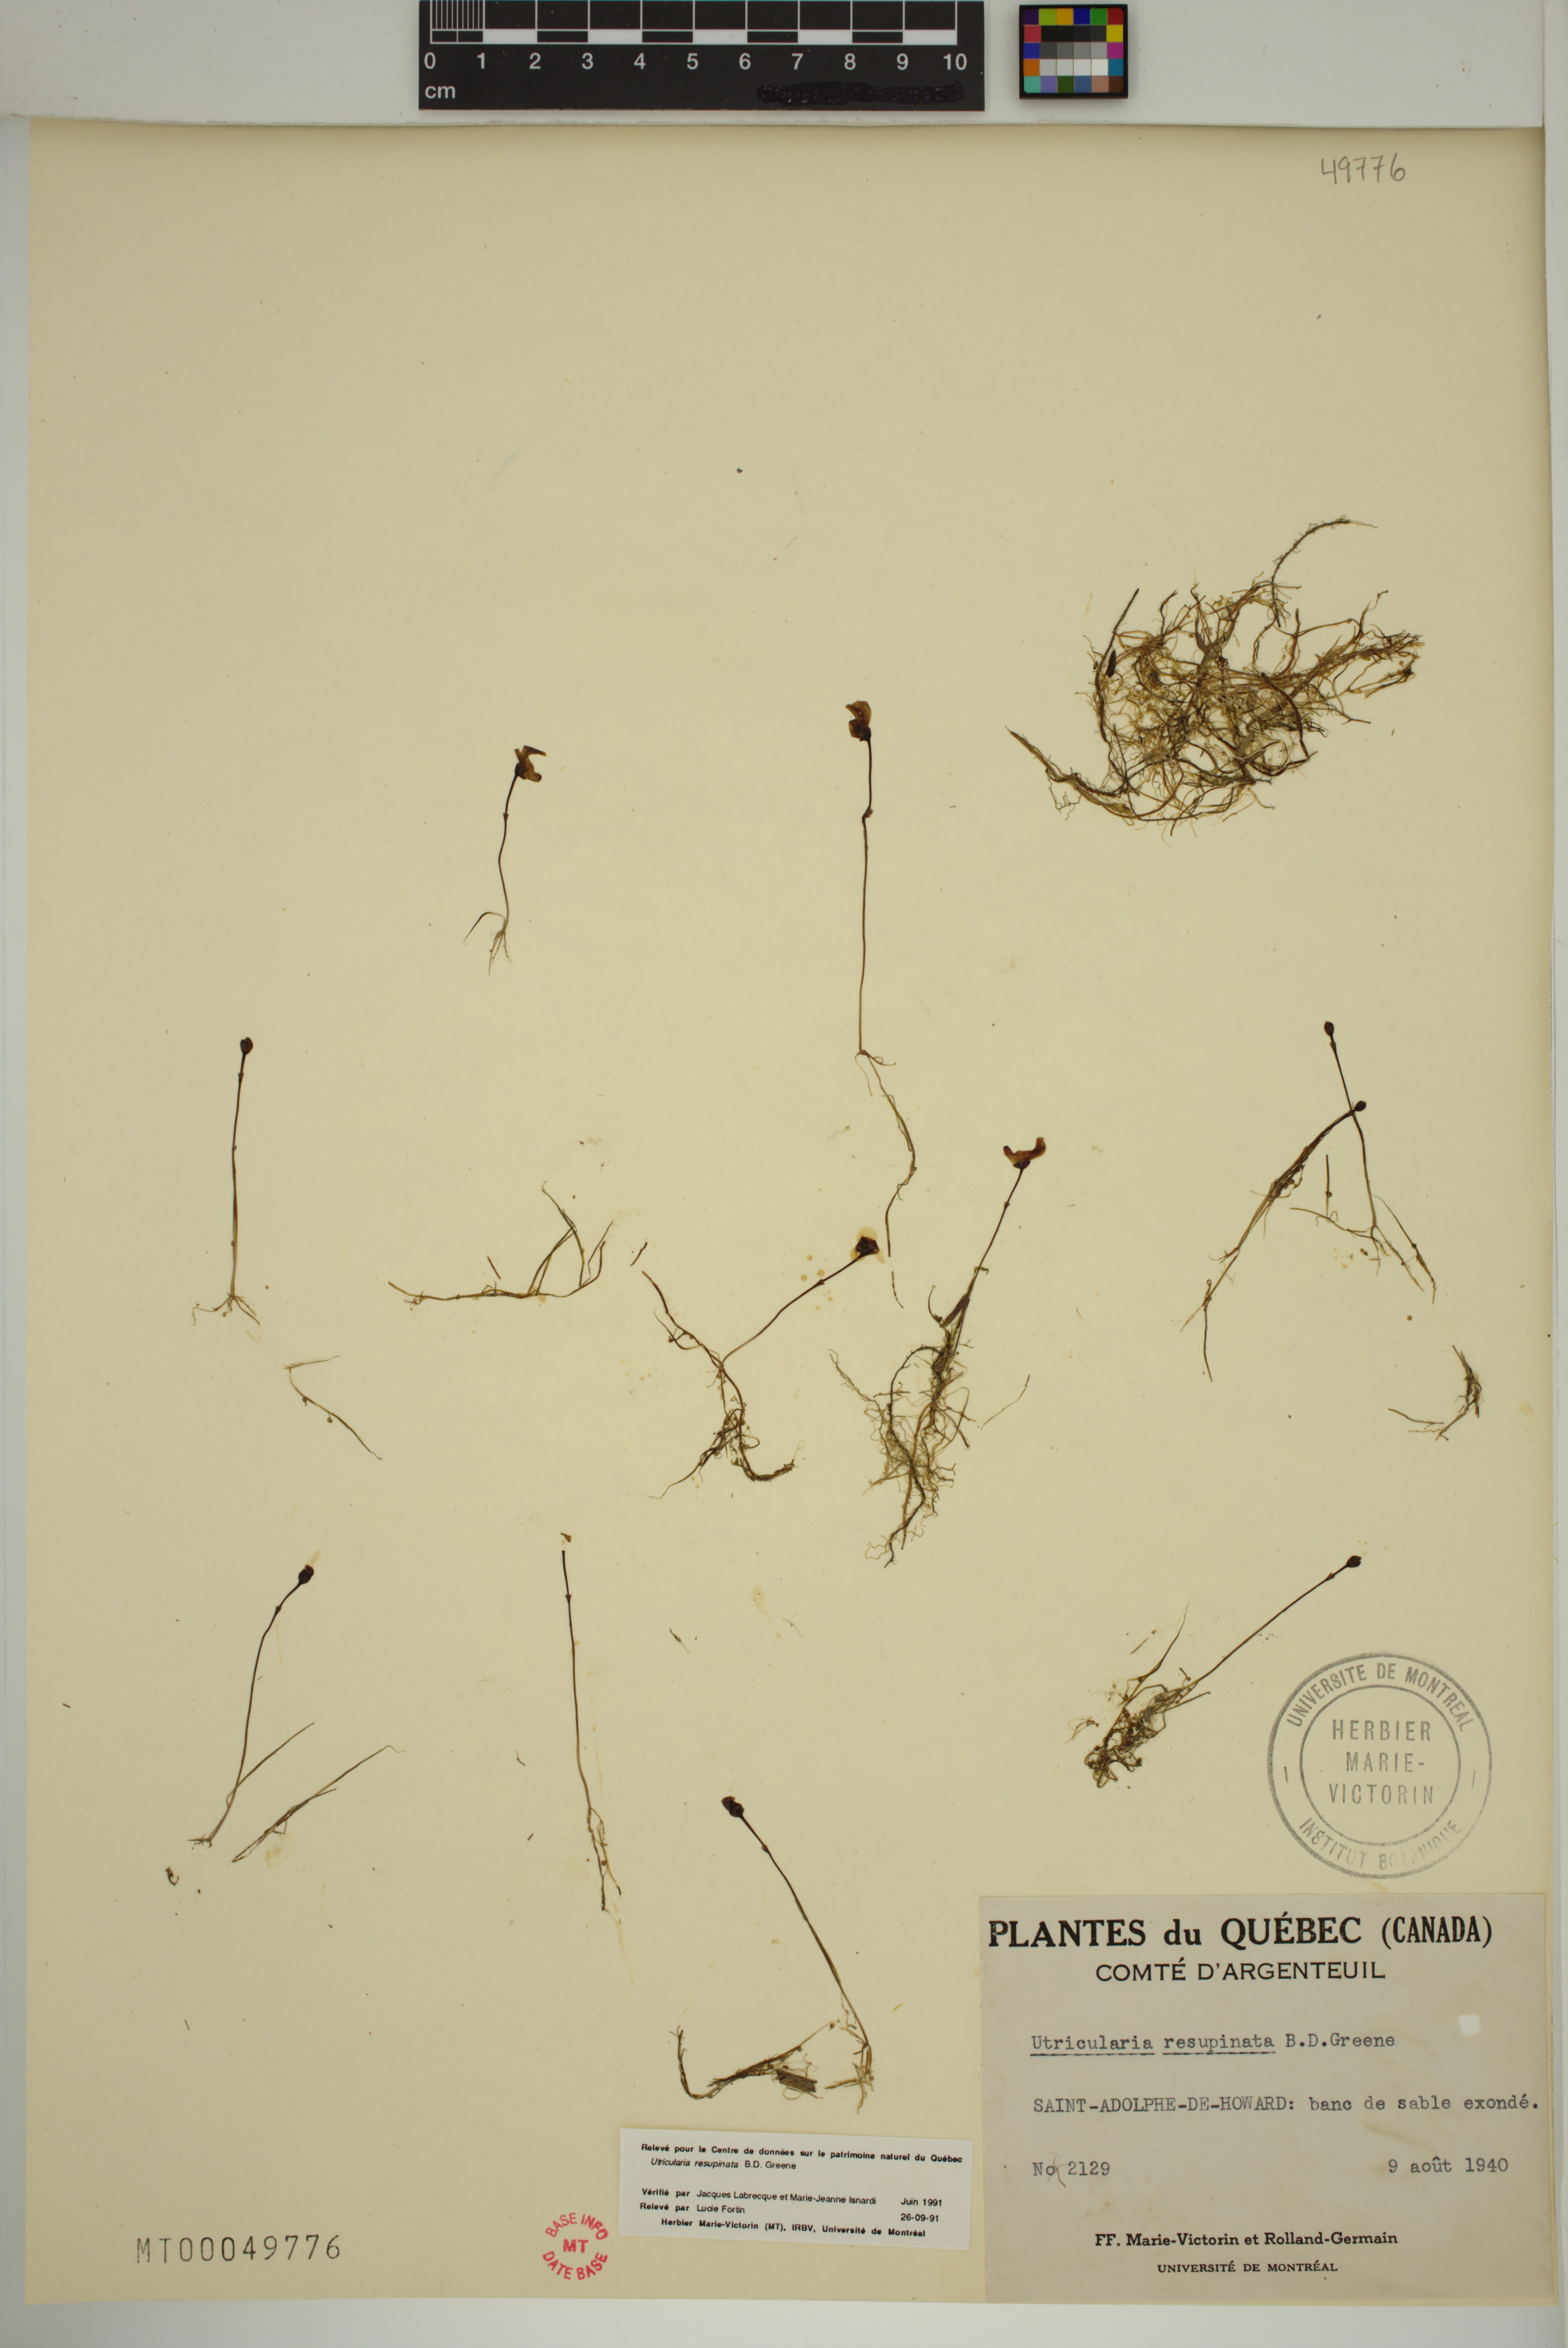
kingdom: Plantae
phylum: Tracheophyta
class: Magnoliopsida
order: Lamiales
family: Lentibulariaceae
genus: Utricularia
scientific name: Utricularia resupinata
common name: Northeastern bladderwort
